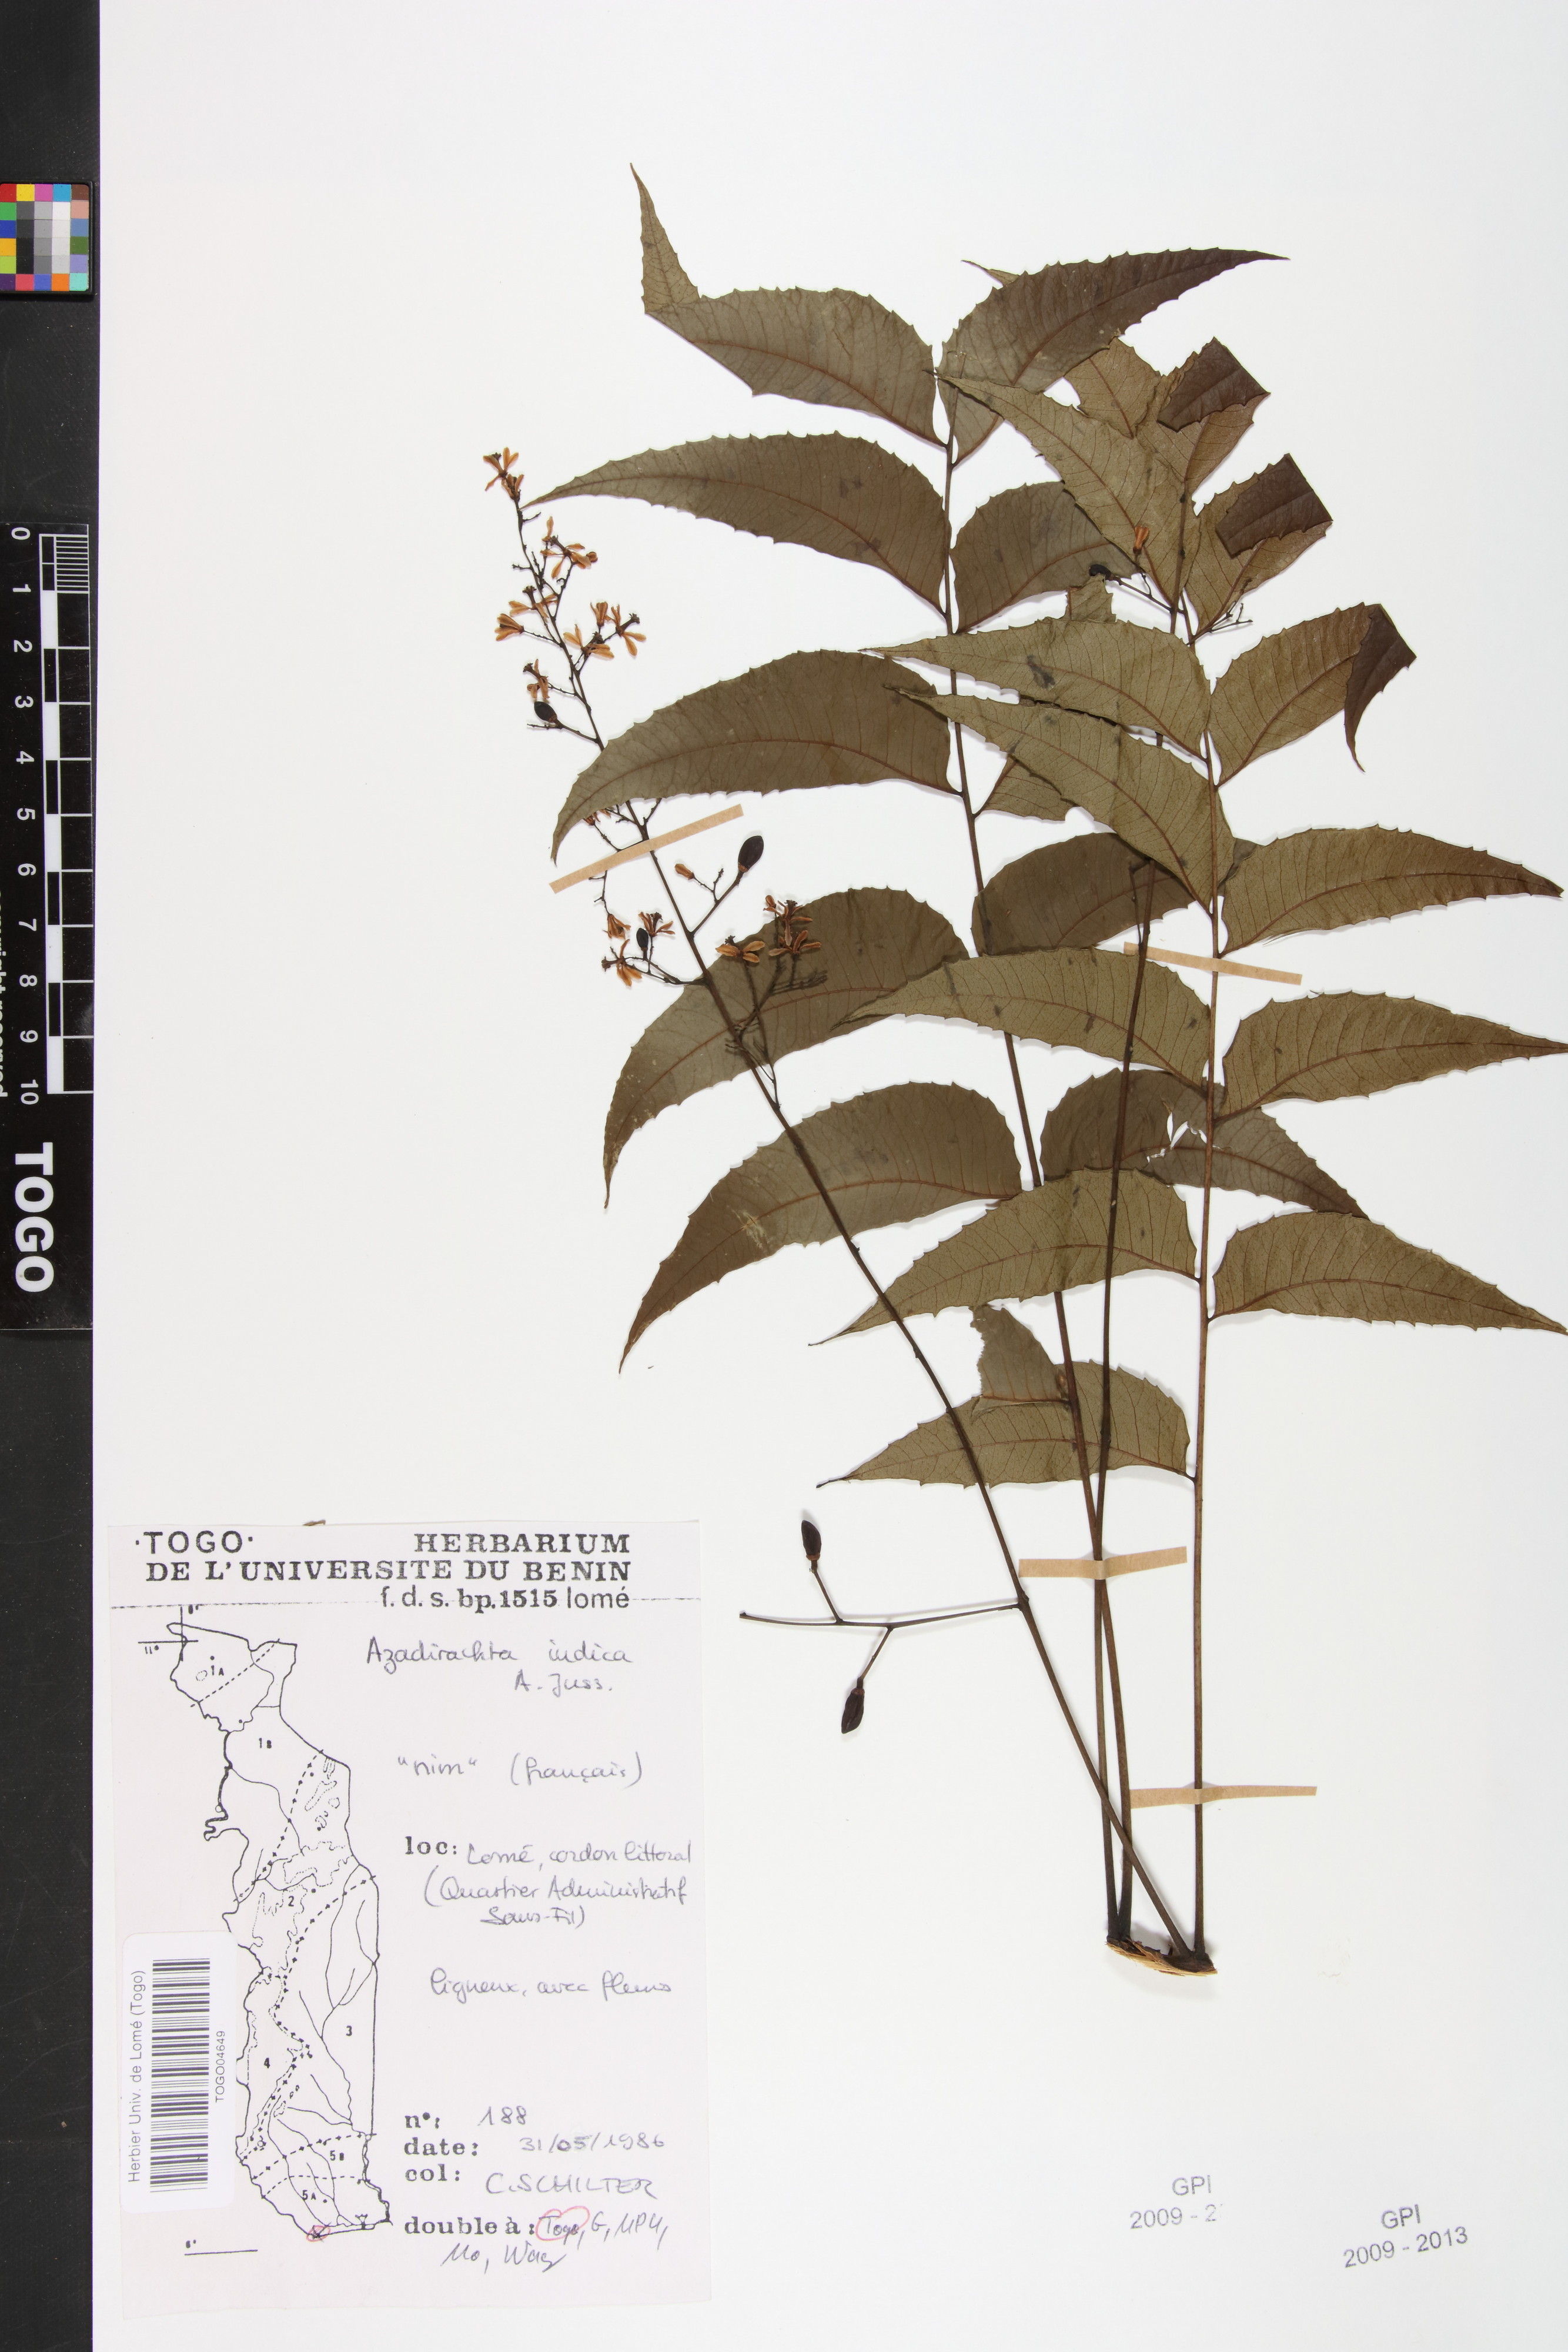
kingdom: Plantae
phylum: Tracheophyta
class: Magnoliopsida
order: Sapindales
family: Meliaceae
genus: Azadirachta
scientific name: Azadirachta indica
